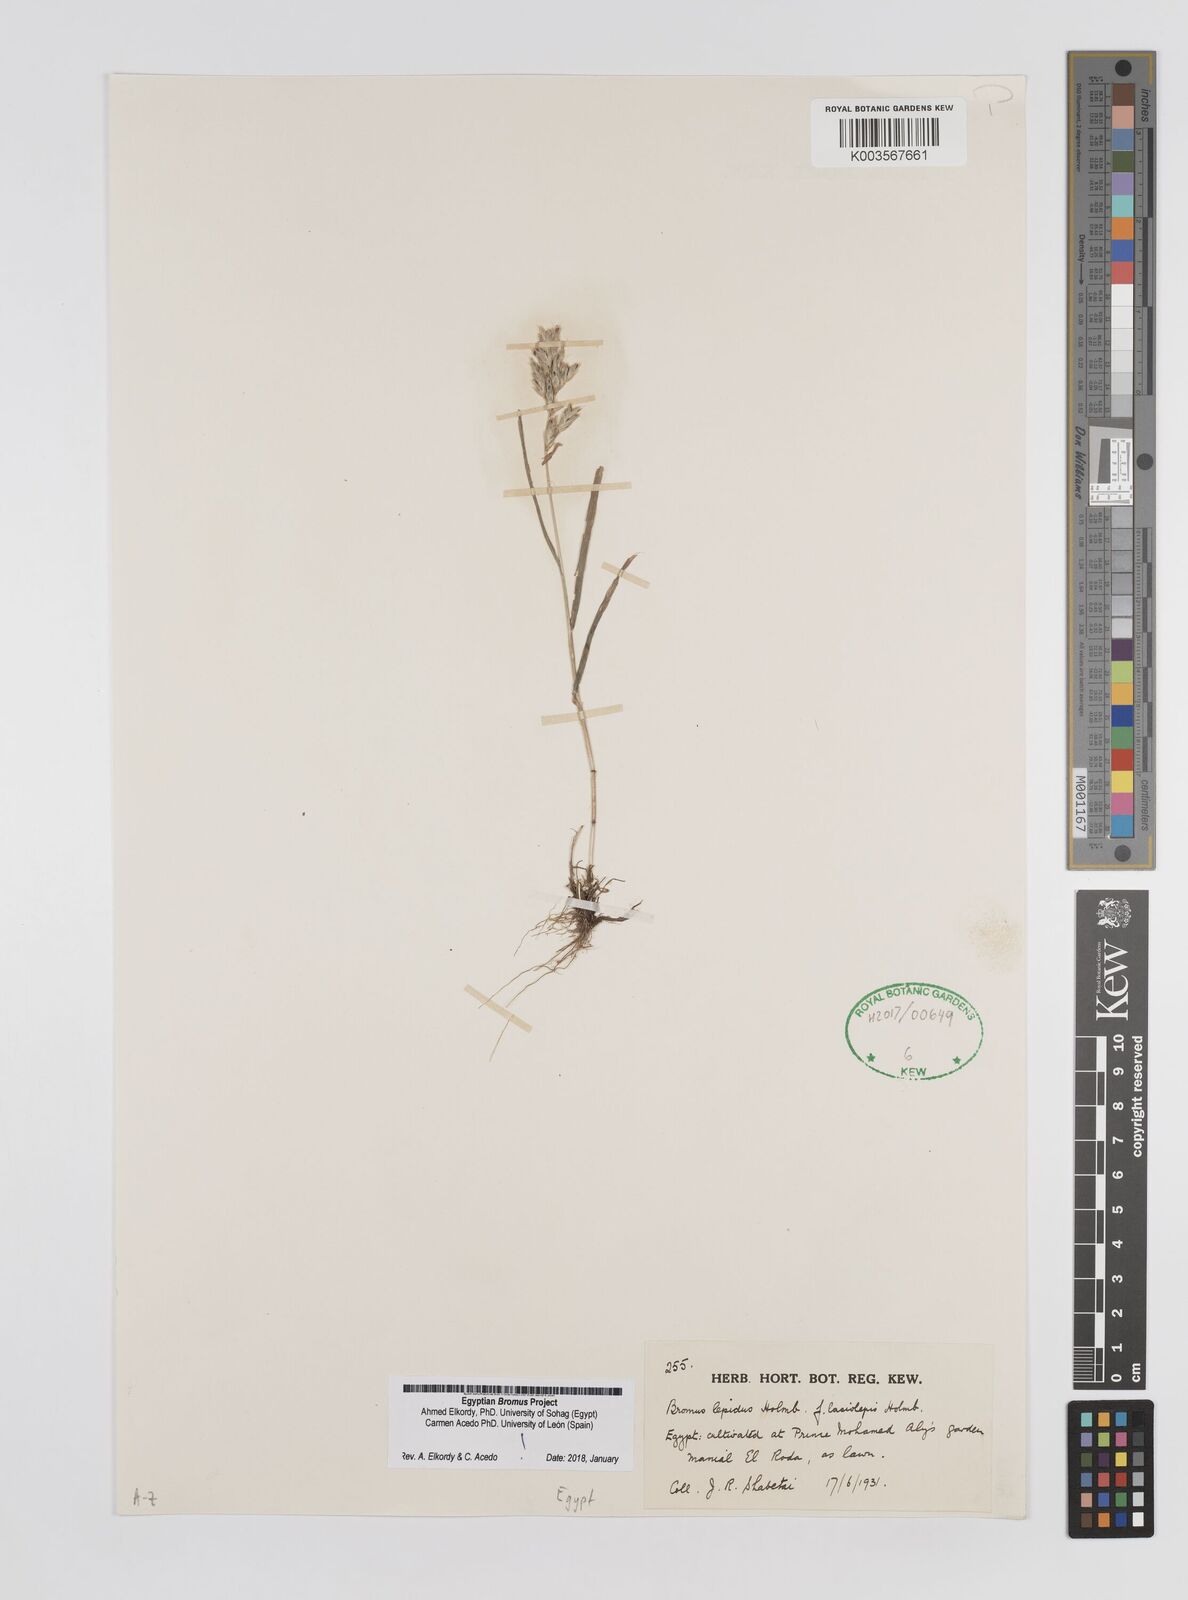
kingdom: Plantae
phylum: Tracheophyta
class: Liliopsida
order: Poales
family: Poaceae
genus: Bromus
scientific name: Bromus lepidus
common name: Slender soft-brome
